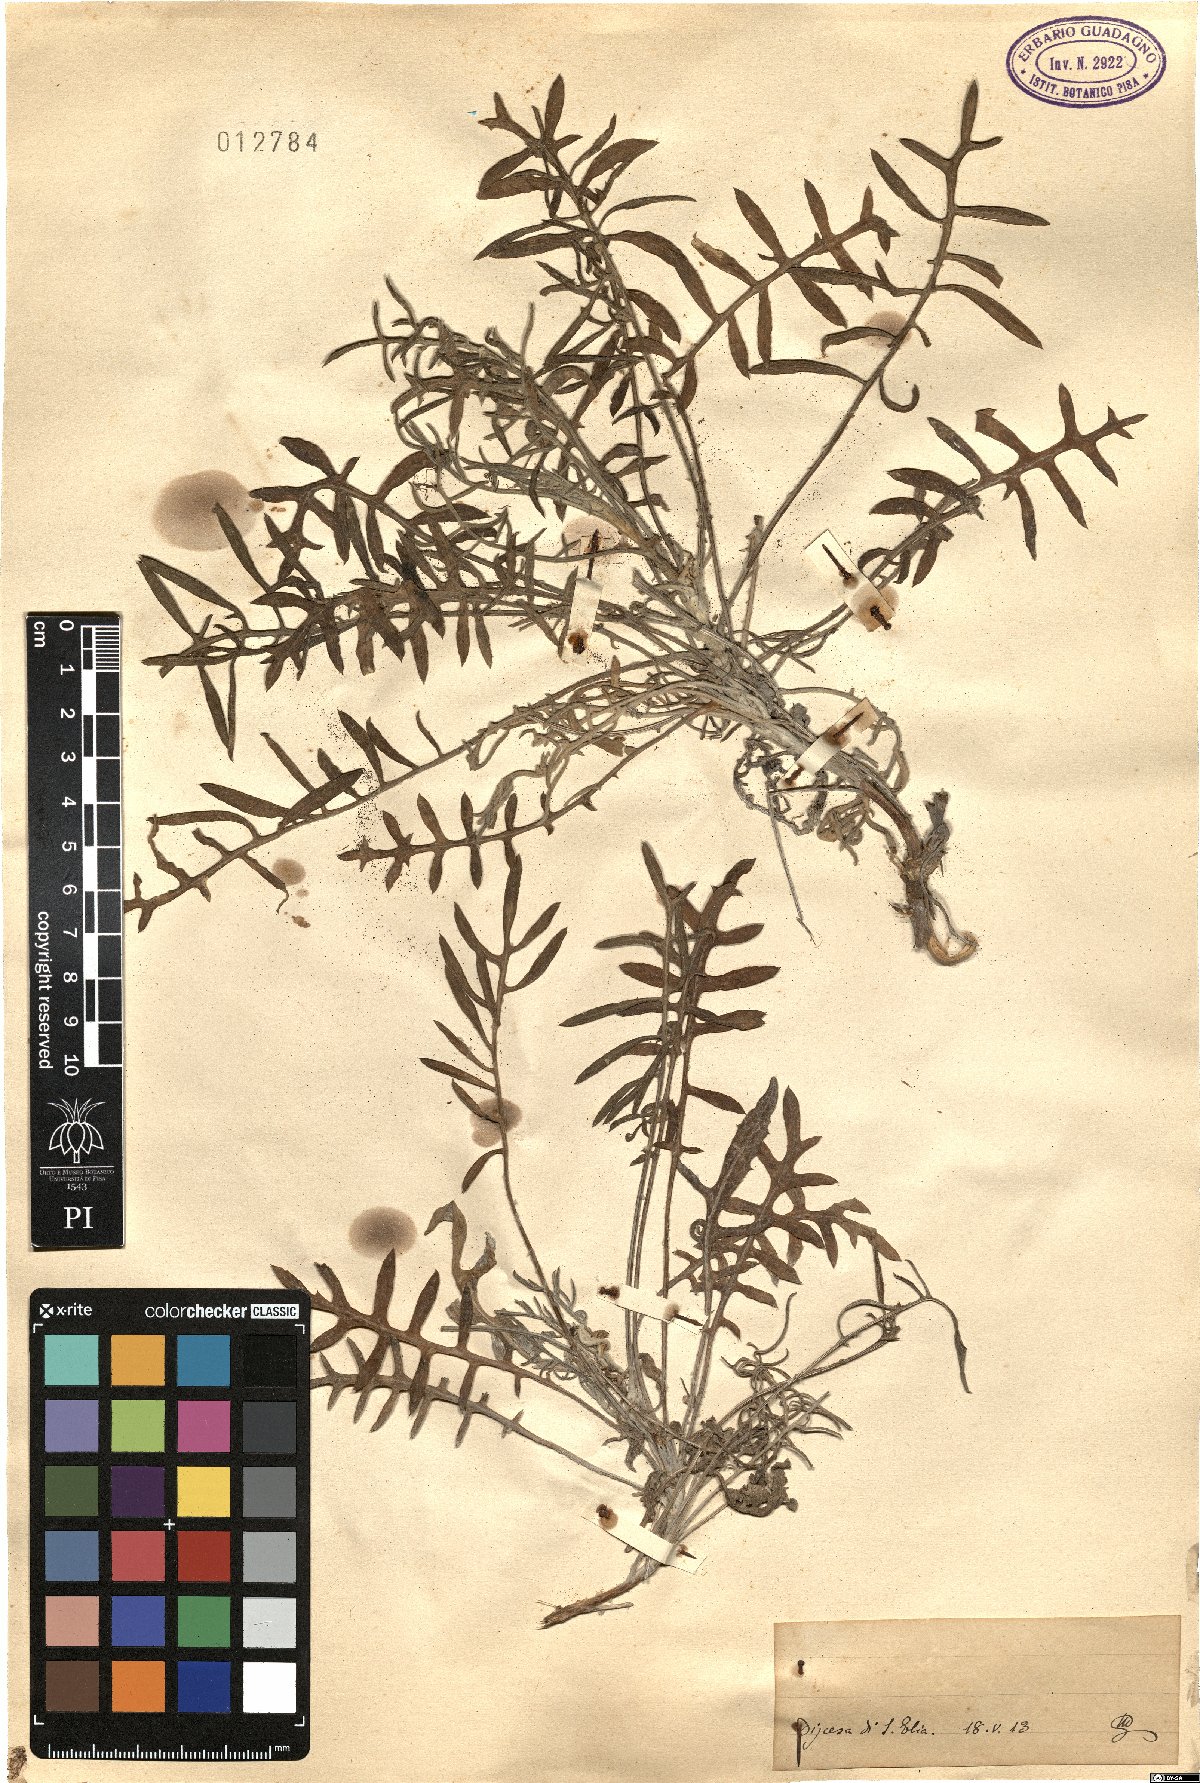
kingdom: Plantae
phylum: Tracheophyta
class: Magnoliopsida
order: Asterales
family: Asteraceae
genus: Centaurea
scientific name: Centaurea
